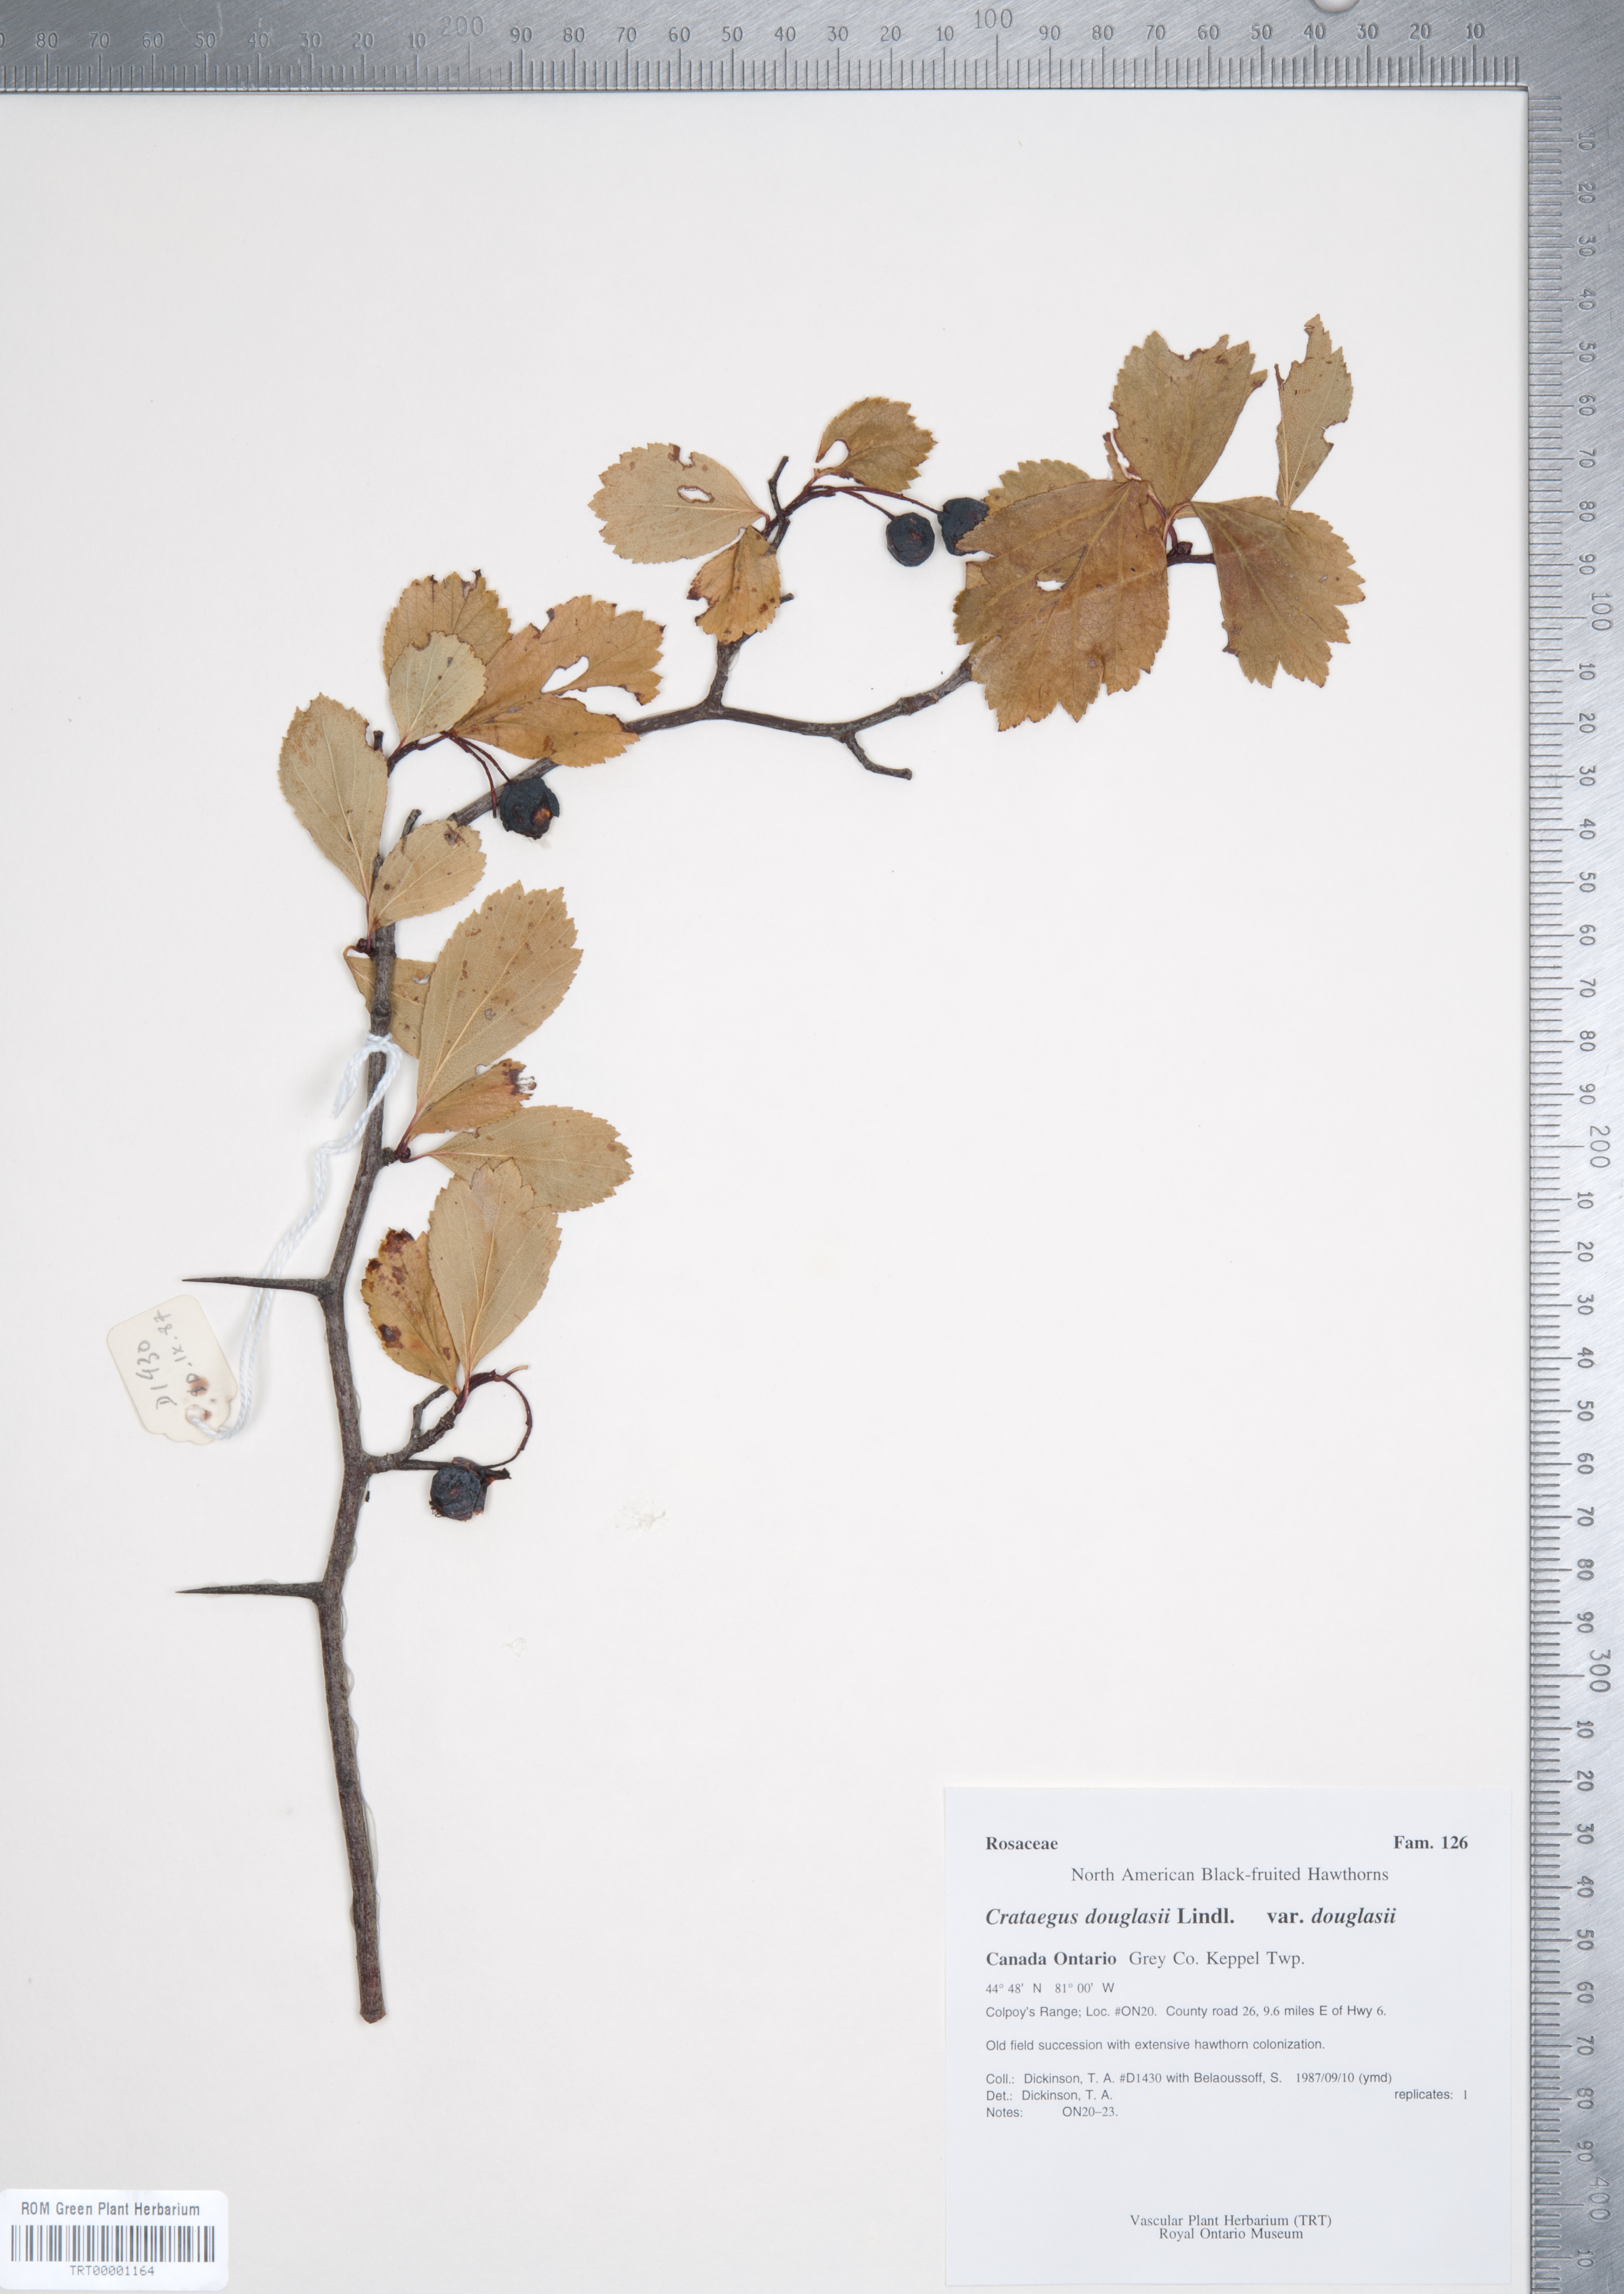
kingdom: Plantae
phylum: Tracheophyta
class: Magnoliopsida
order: Rosales
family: Rosaceae
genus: Crataegus
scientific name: Crataegus douglasii
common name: Black hawthorn
